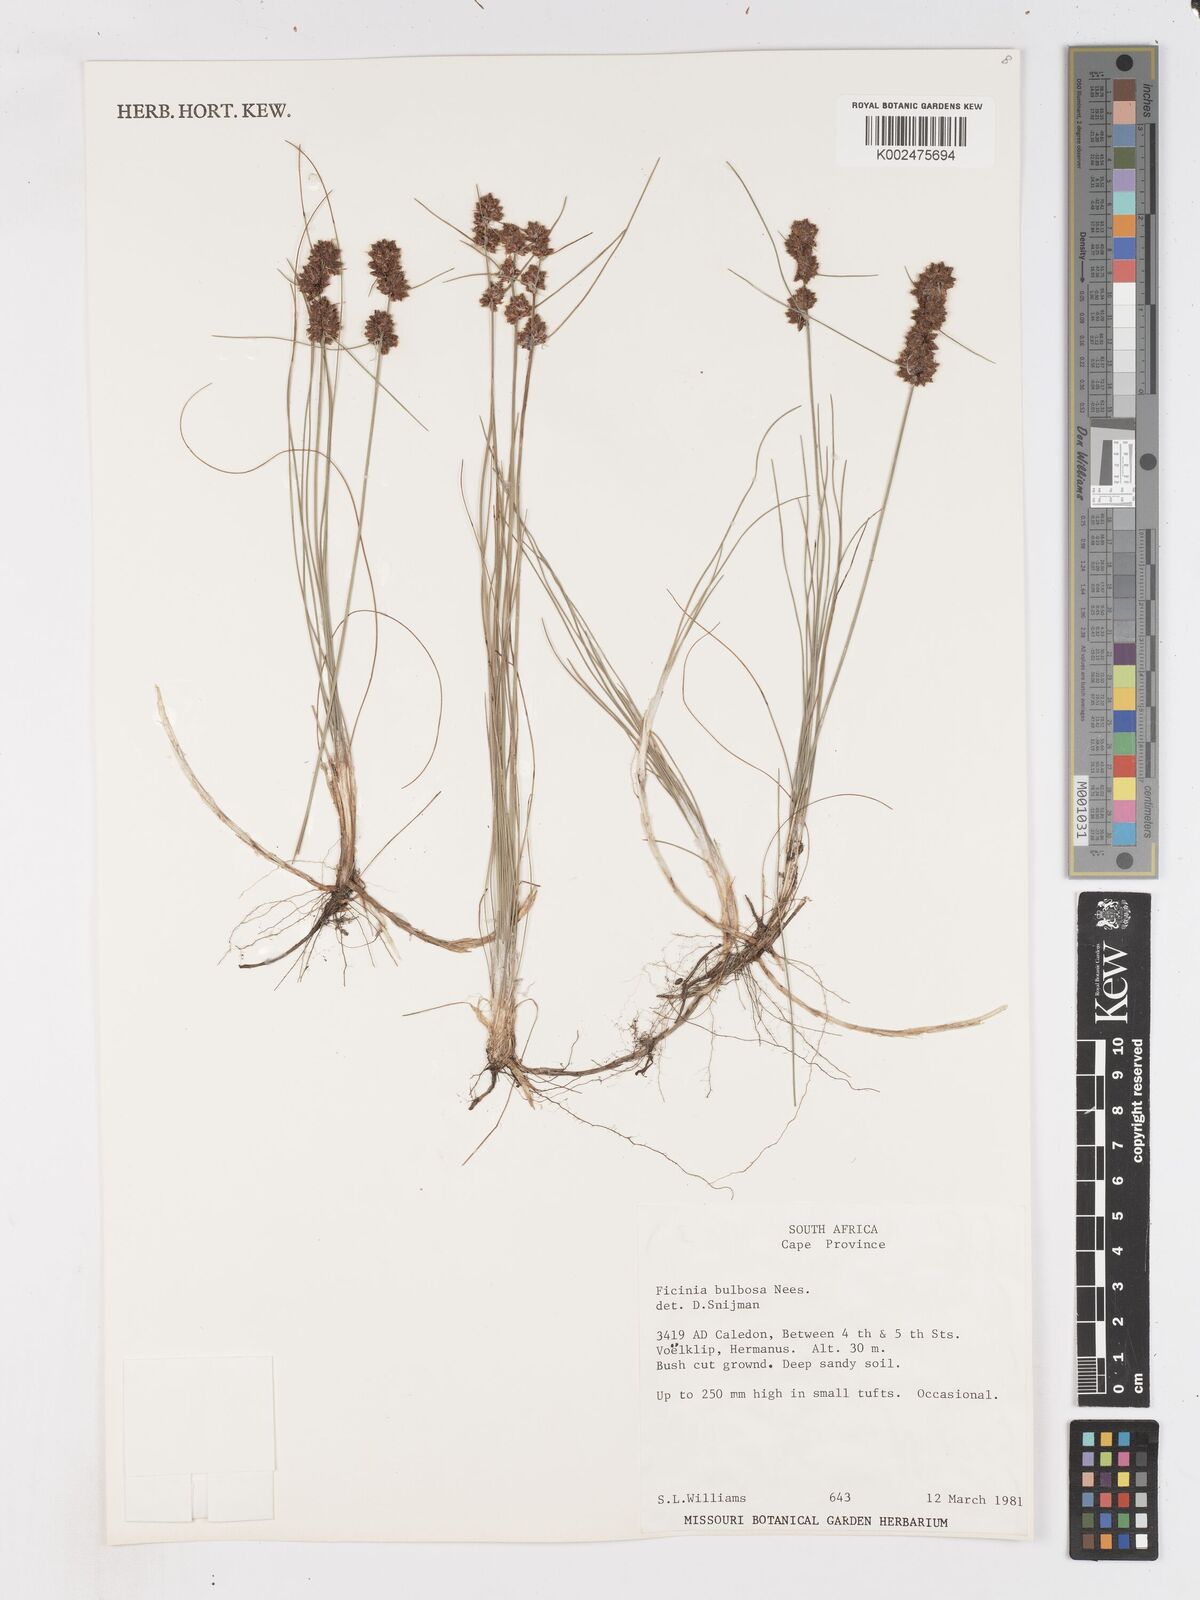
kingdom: Plantae
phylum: Tracheophyta
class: Liliopsida
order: Poales
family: Cyperaceae
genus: Ficinia
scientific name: Ficinia bulbosa
